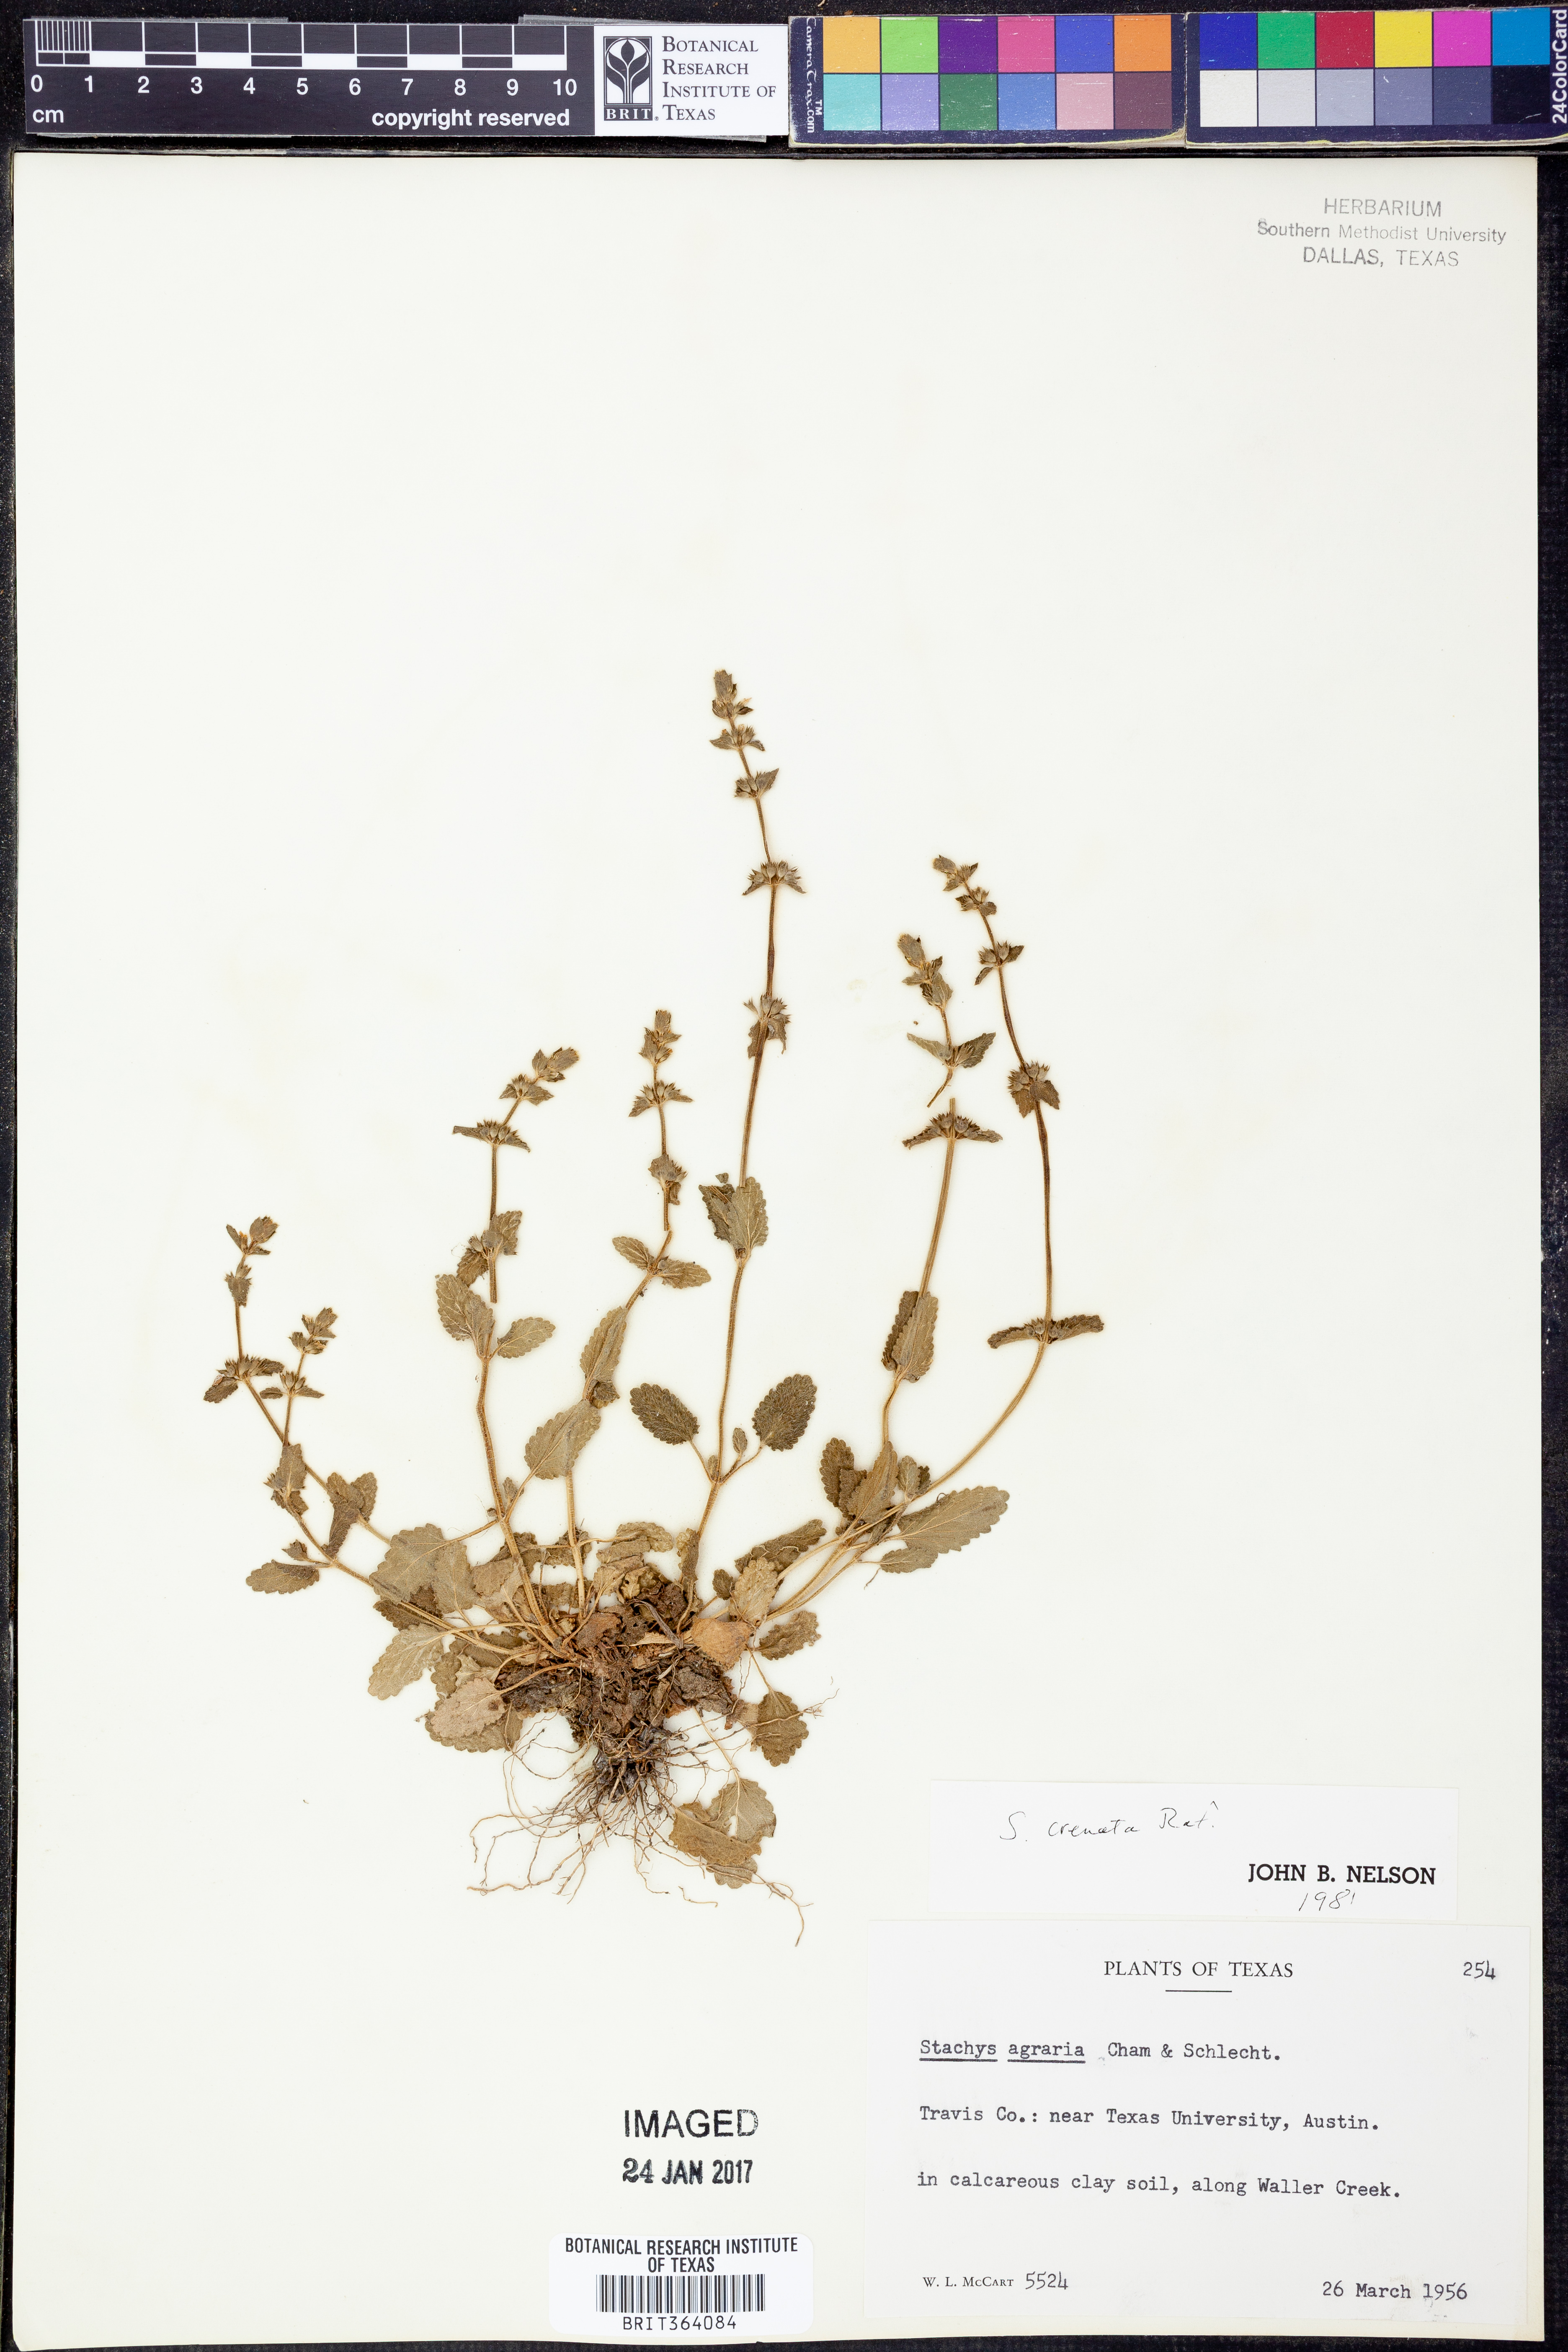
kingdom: Plantae
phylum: Tracheophyta
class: Magnoliopsida
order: Lamiales
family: Lamiaceae
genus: Stachys
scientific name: Stachys agraria
